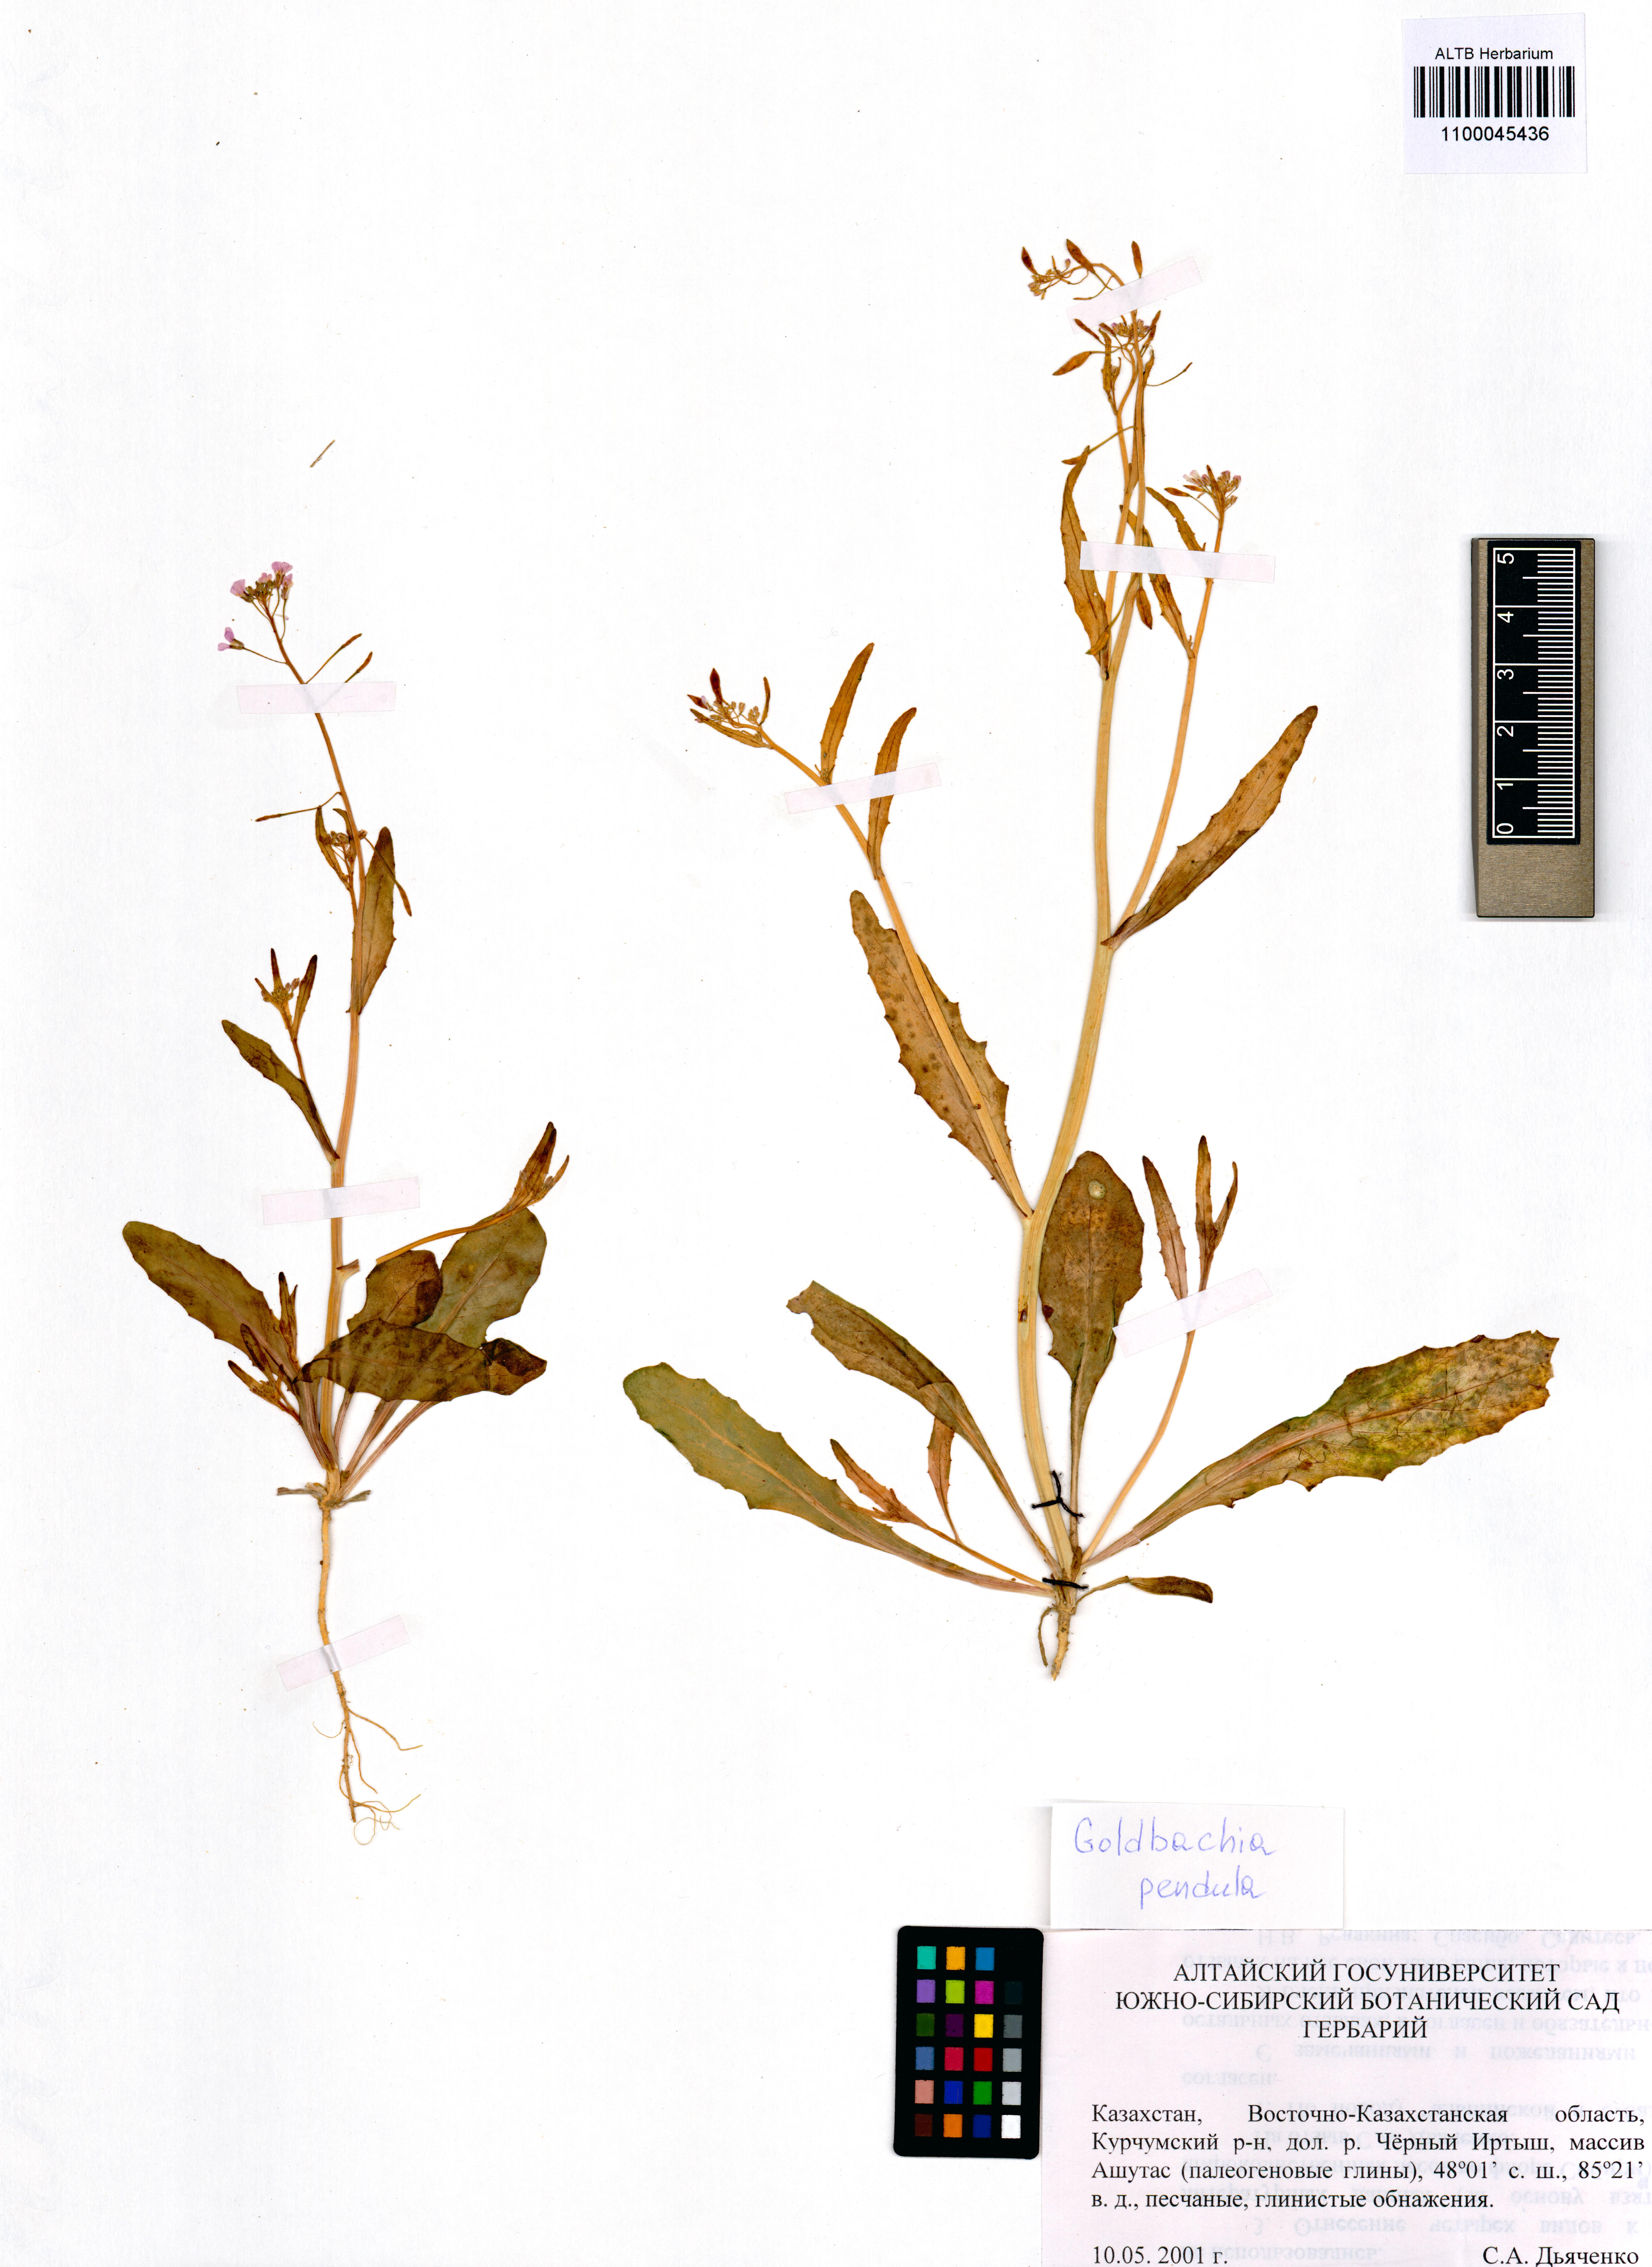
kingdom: Plantae
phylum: Tracheophyta
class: Magnoliopsida
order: Brassicales
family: Brassicaceae
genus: Goldbachia
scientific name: Goldbachia pendula
